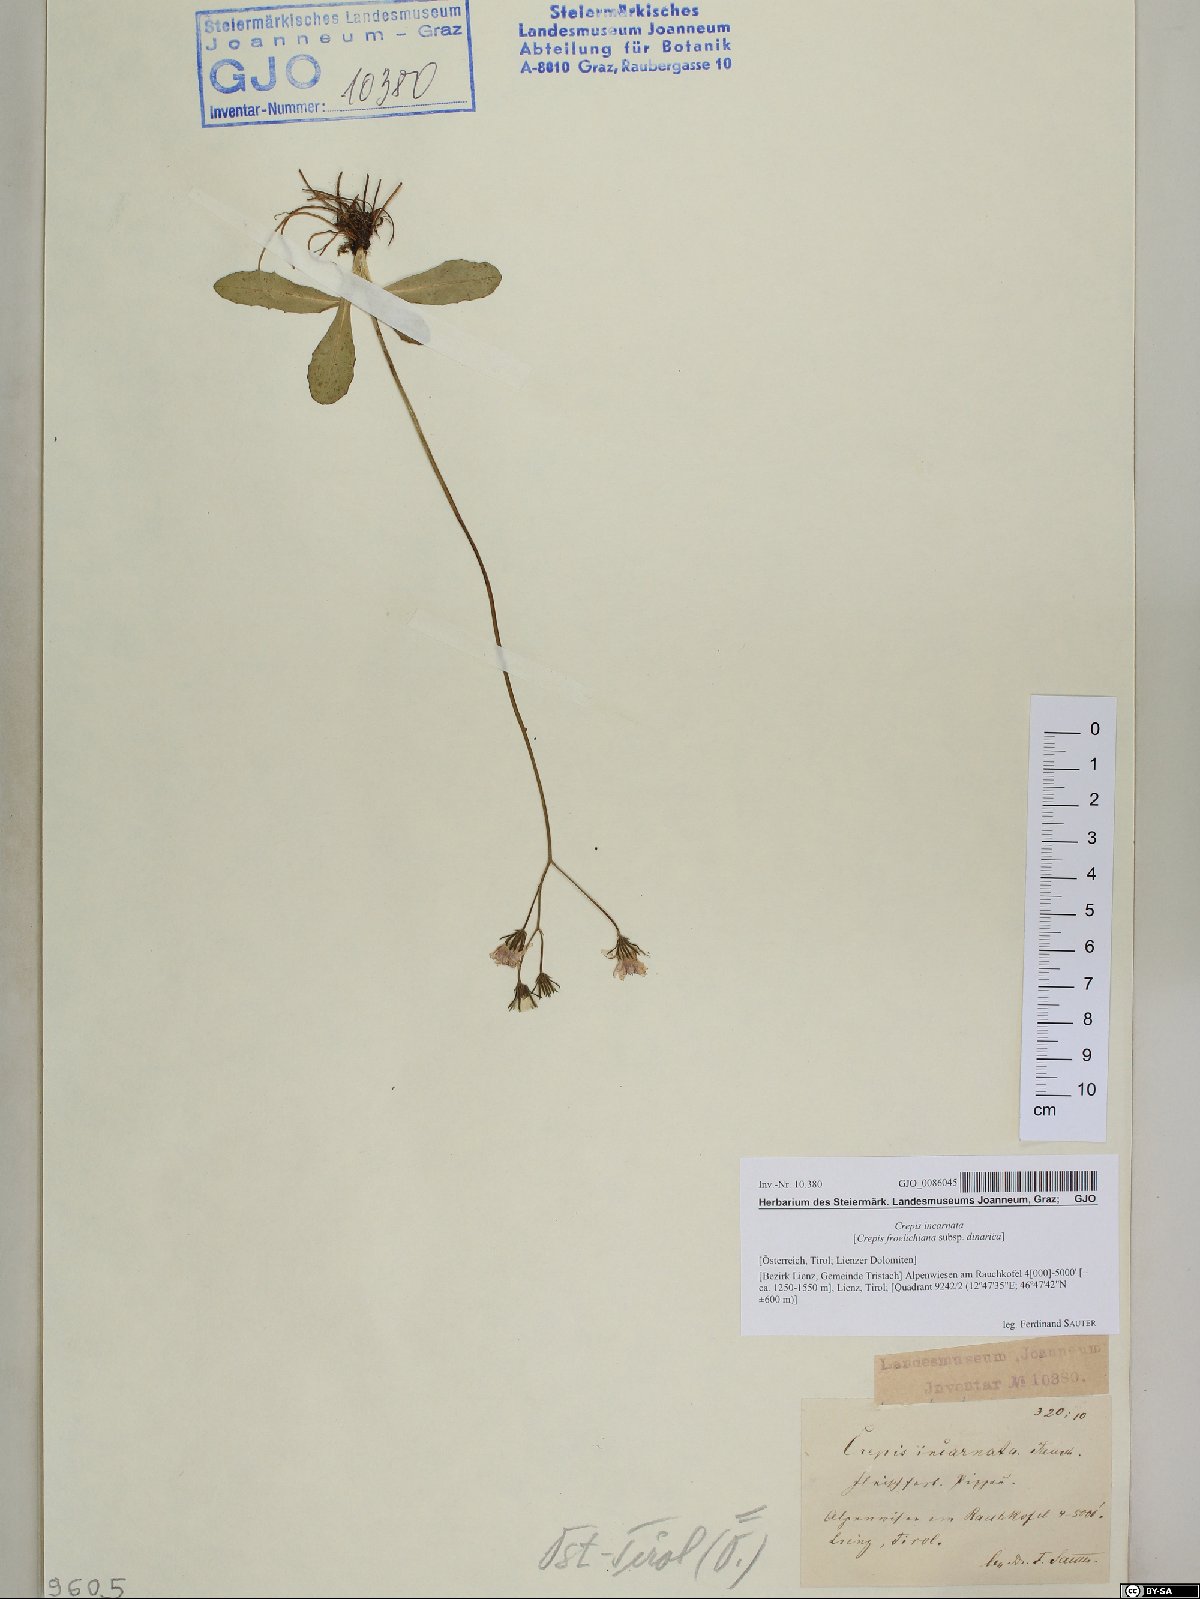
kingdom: Plantae
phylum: Tracheophyta
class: Magnoliopsida
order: Asterales
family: Asteraceae
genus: Crepis
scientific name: Crepis froelichiana
